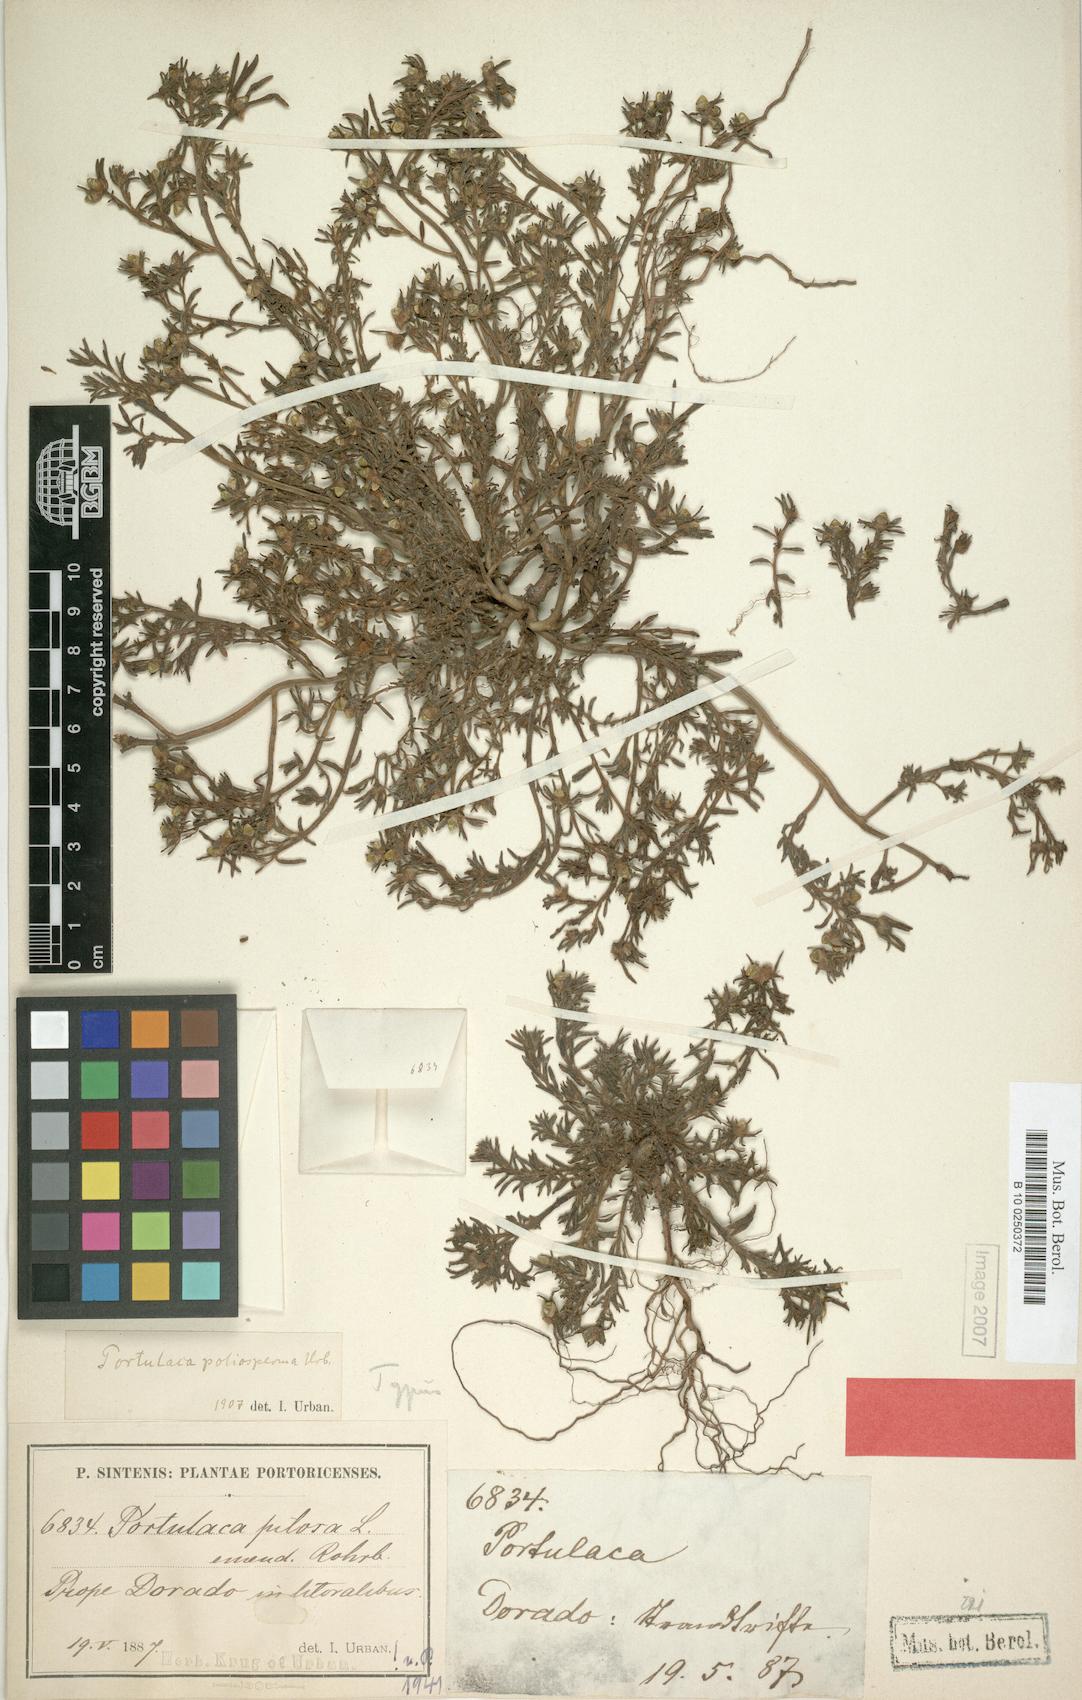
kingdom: Plantae
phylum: Tracheophyta
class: Magnoliopsida
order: Caryophyllales
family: Portulacaceae
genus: Portulaca
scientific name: Portulaca teretifolia
